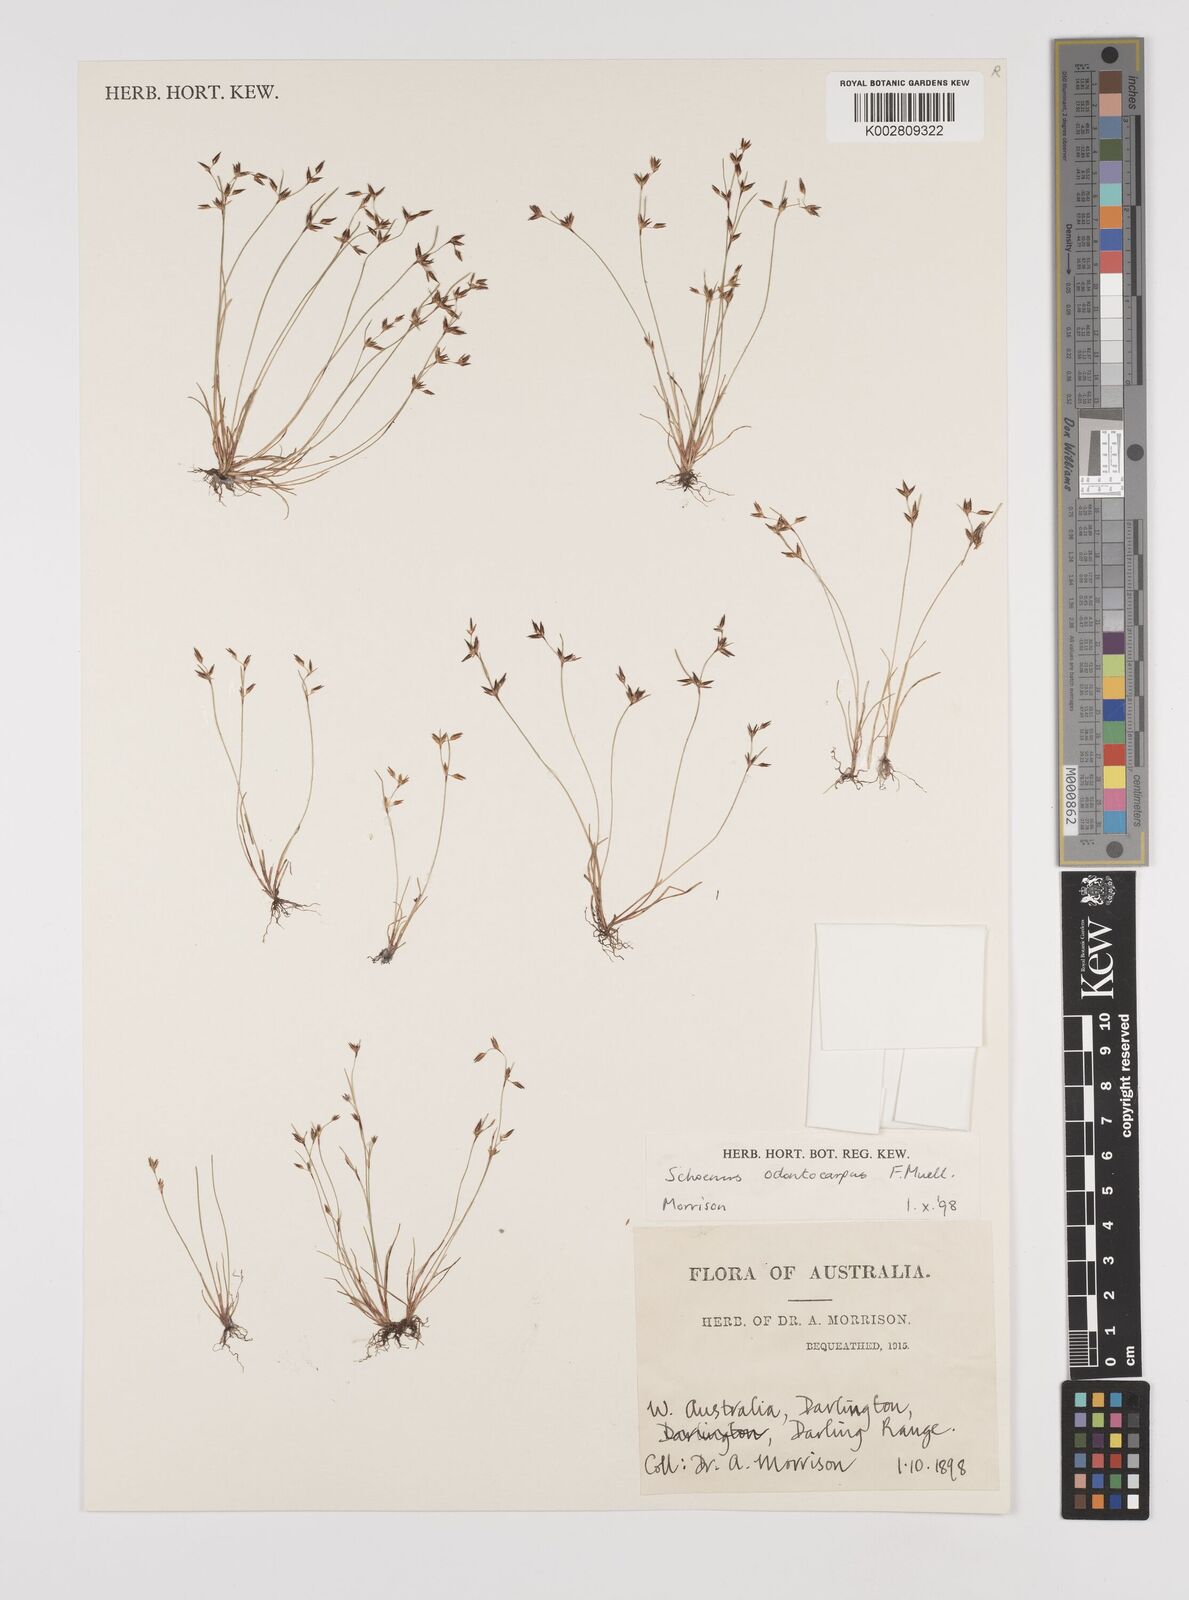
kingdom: Plantae
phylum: Tracheophyta
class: Liliopsida
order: Poales
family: Cyperaceae
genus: Schoenus
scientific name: Schoenus odontocarpus
